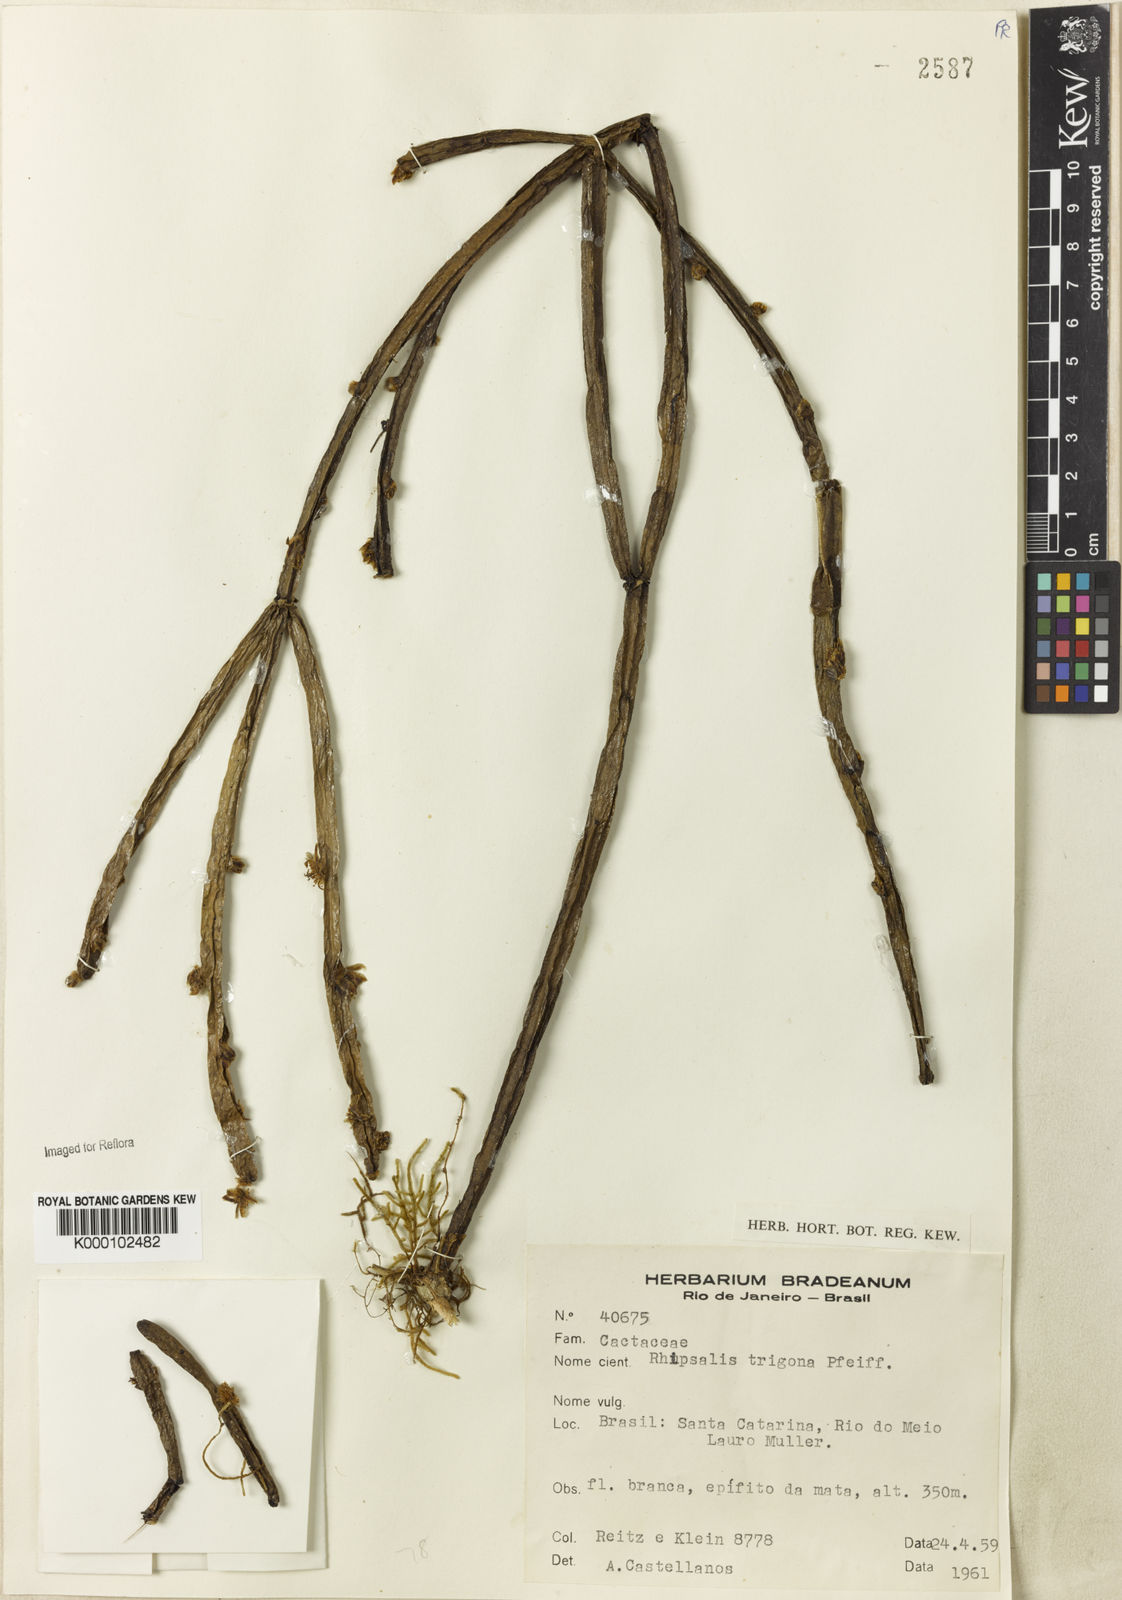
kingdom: Plantae
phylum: Tracheophyta
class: Magnoliopsida
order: Caryophyllales
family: Cactaceae
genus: Rhipsalis
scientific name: Rhipsalis trigona
